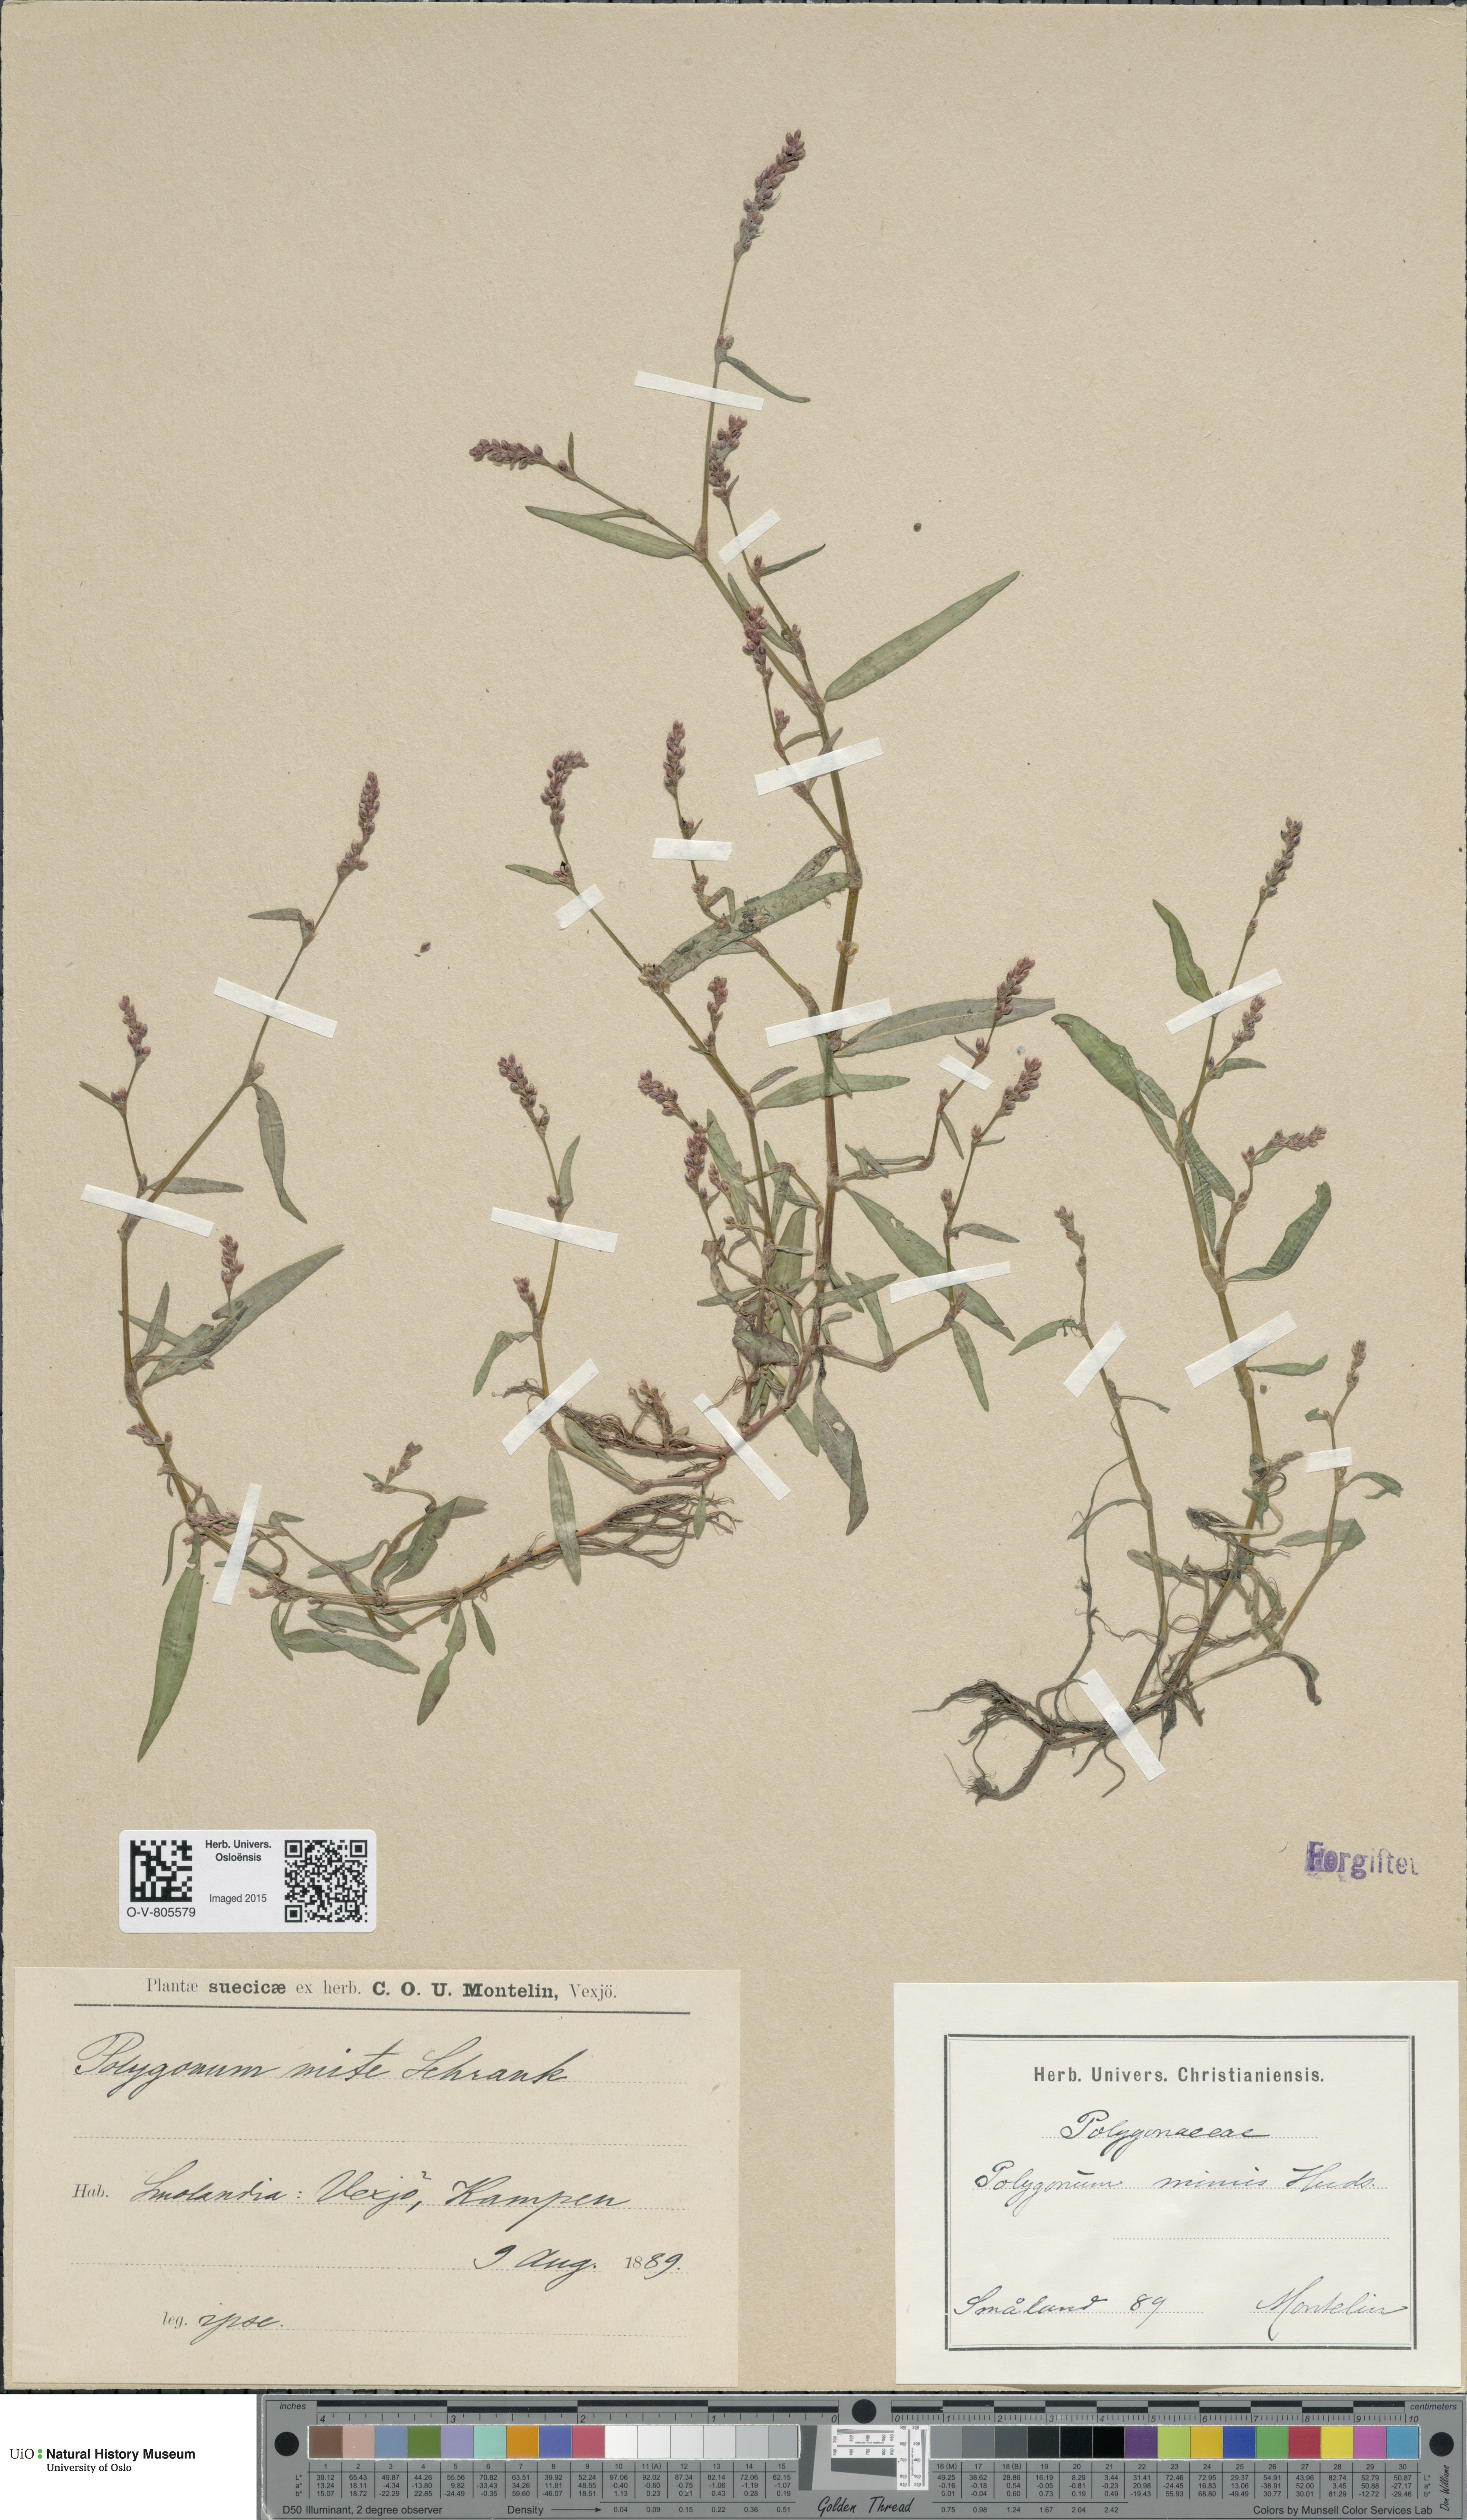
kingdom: Plantae
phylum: Tracheophyta
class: Magnoliopsida
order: Caryophyllales
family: Polygonaceae
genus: Persicaria
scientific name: Persicaria minor
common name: Small water-pepper
